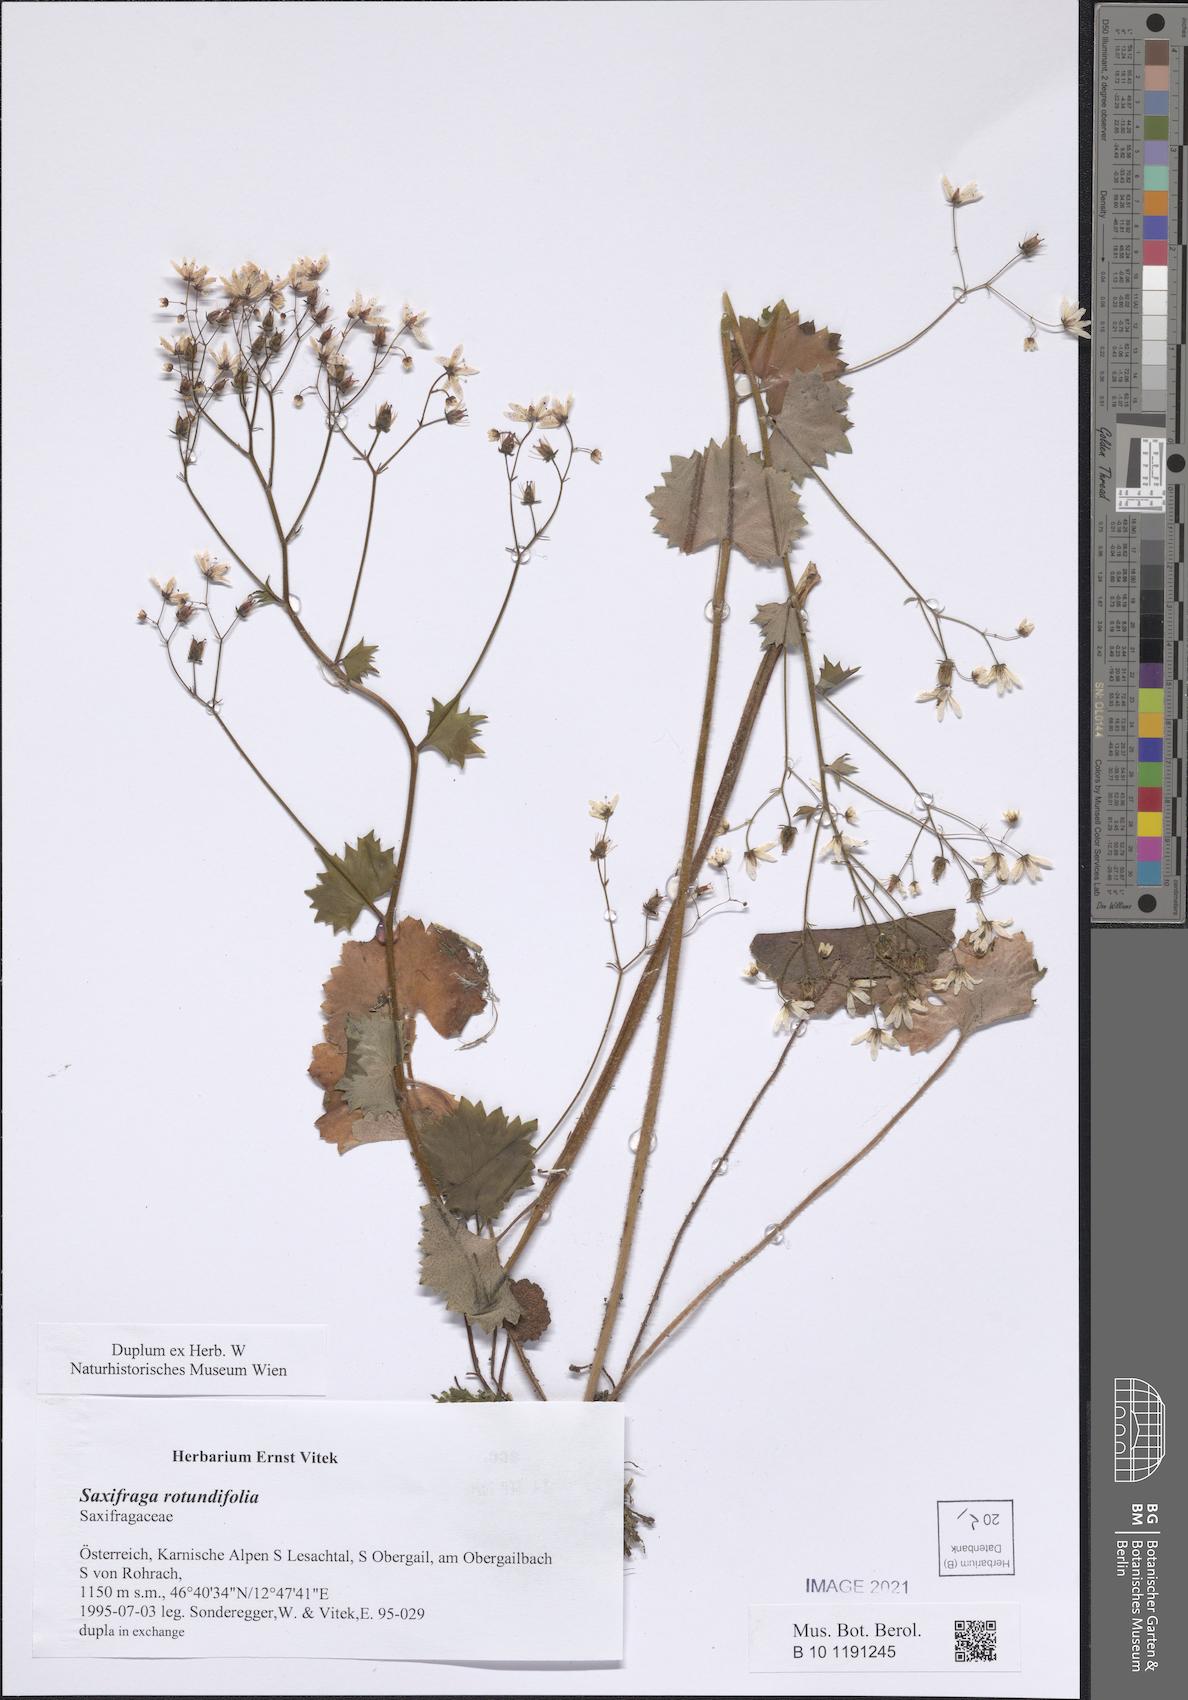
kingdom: Plantae
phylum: Tracheophyta
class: Magnoliopsida
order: Saxifragales
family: Saxifragaceae
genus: Saxifraga
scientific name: Saxifraga rotundifolia
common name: Round-leaved saxifrage
